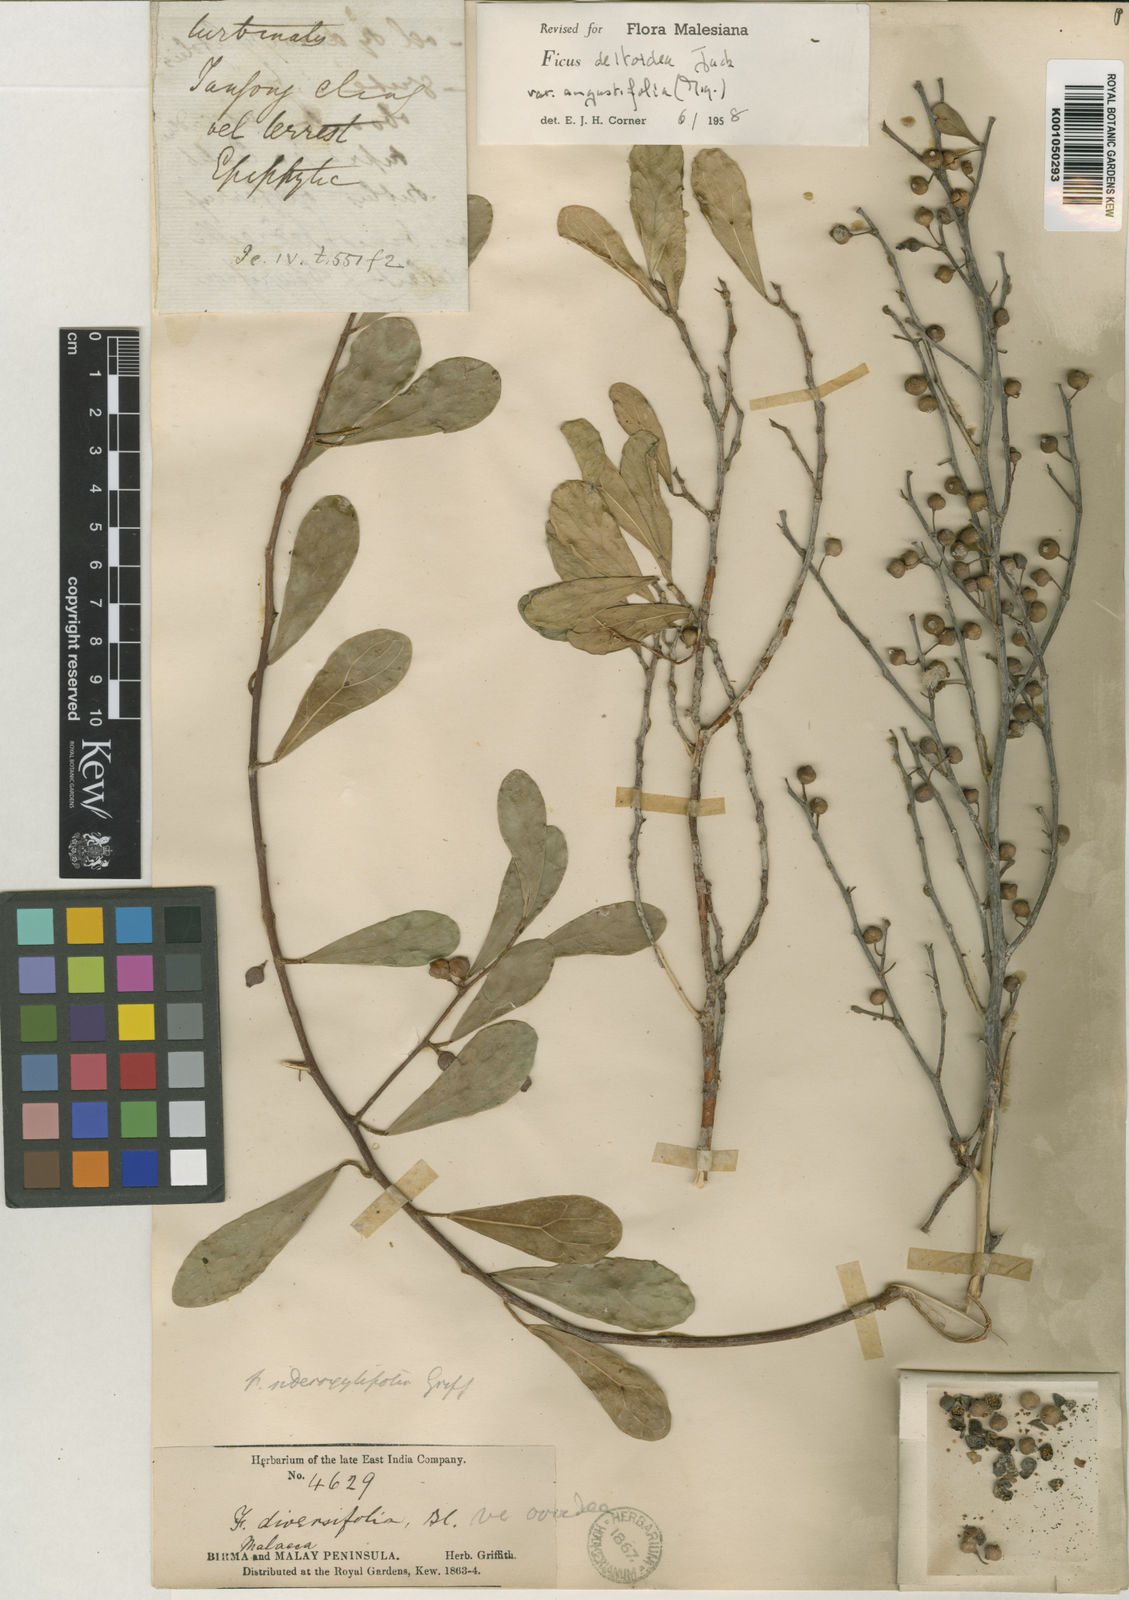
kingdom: Plantae
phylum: Tracheophyta
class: Magnoliopsida
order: Rosales
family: Moraceae
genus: Ficus
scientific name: Ficus deltoidea
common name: Mistletoe fig
